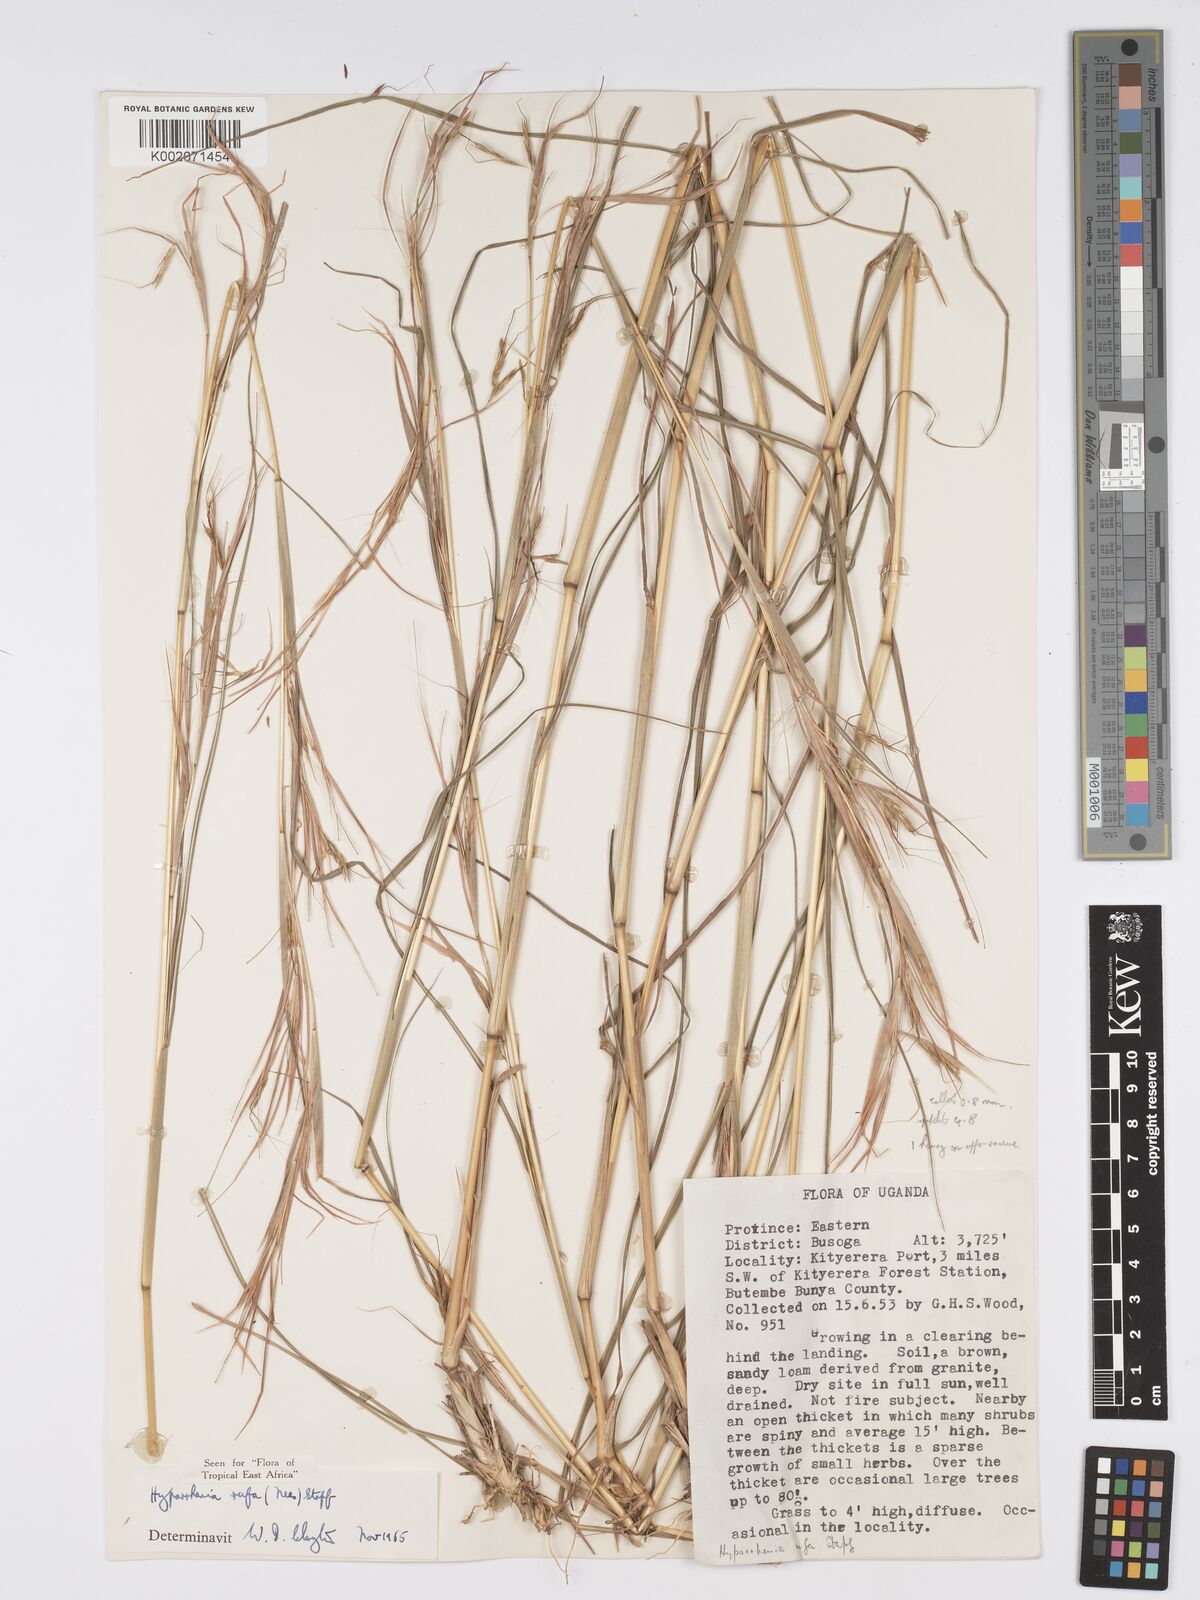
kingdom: Plantae
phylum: Tracheophyta
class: Liliopsida
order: Poales
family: Poaceae
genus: Hyparrhenia
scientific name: Hyparrhenia rufa
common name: Jaraguagrass
